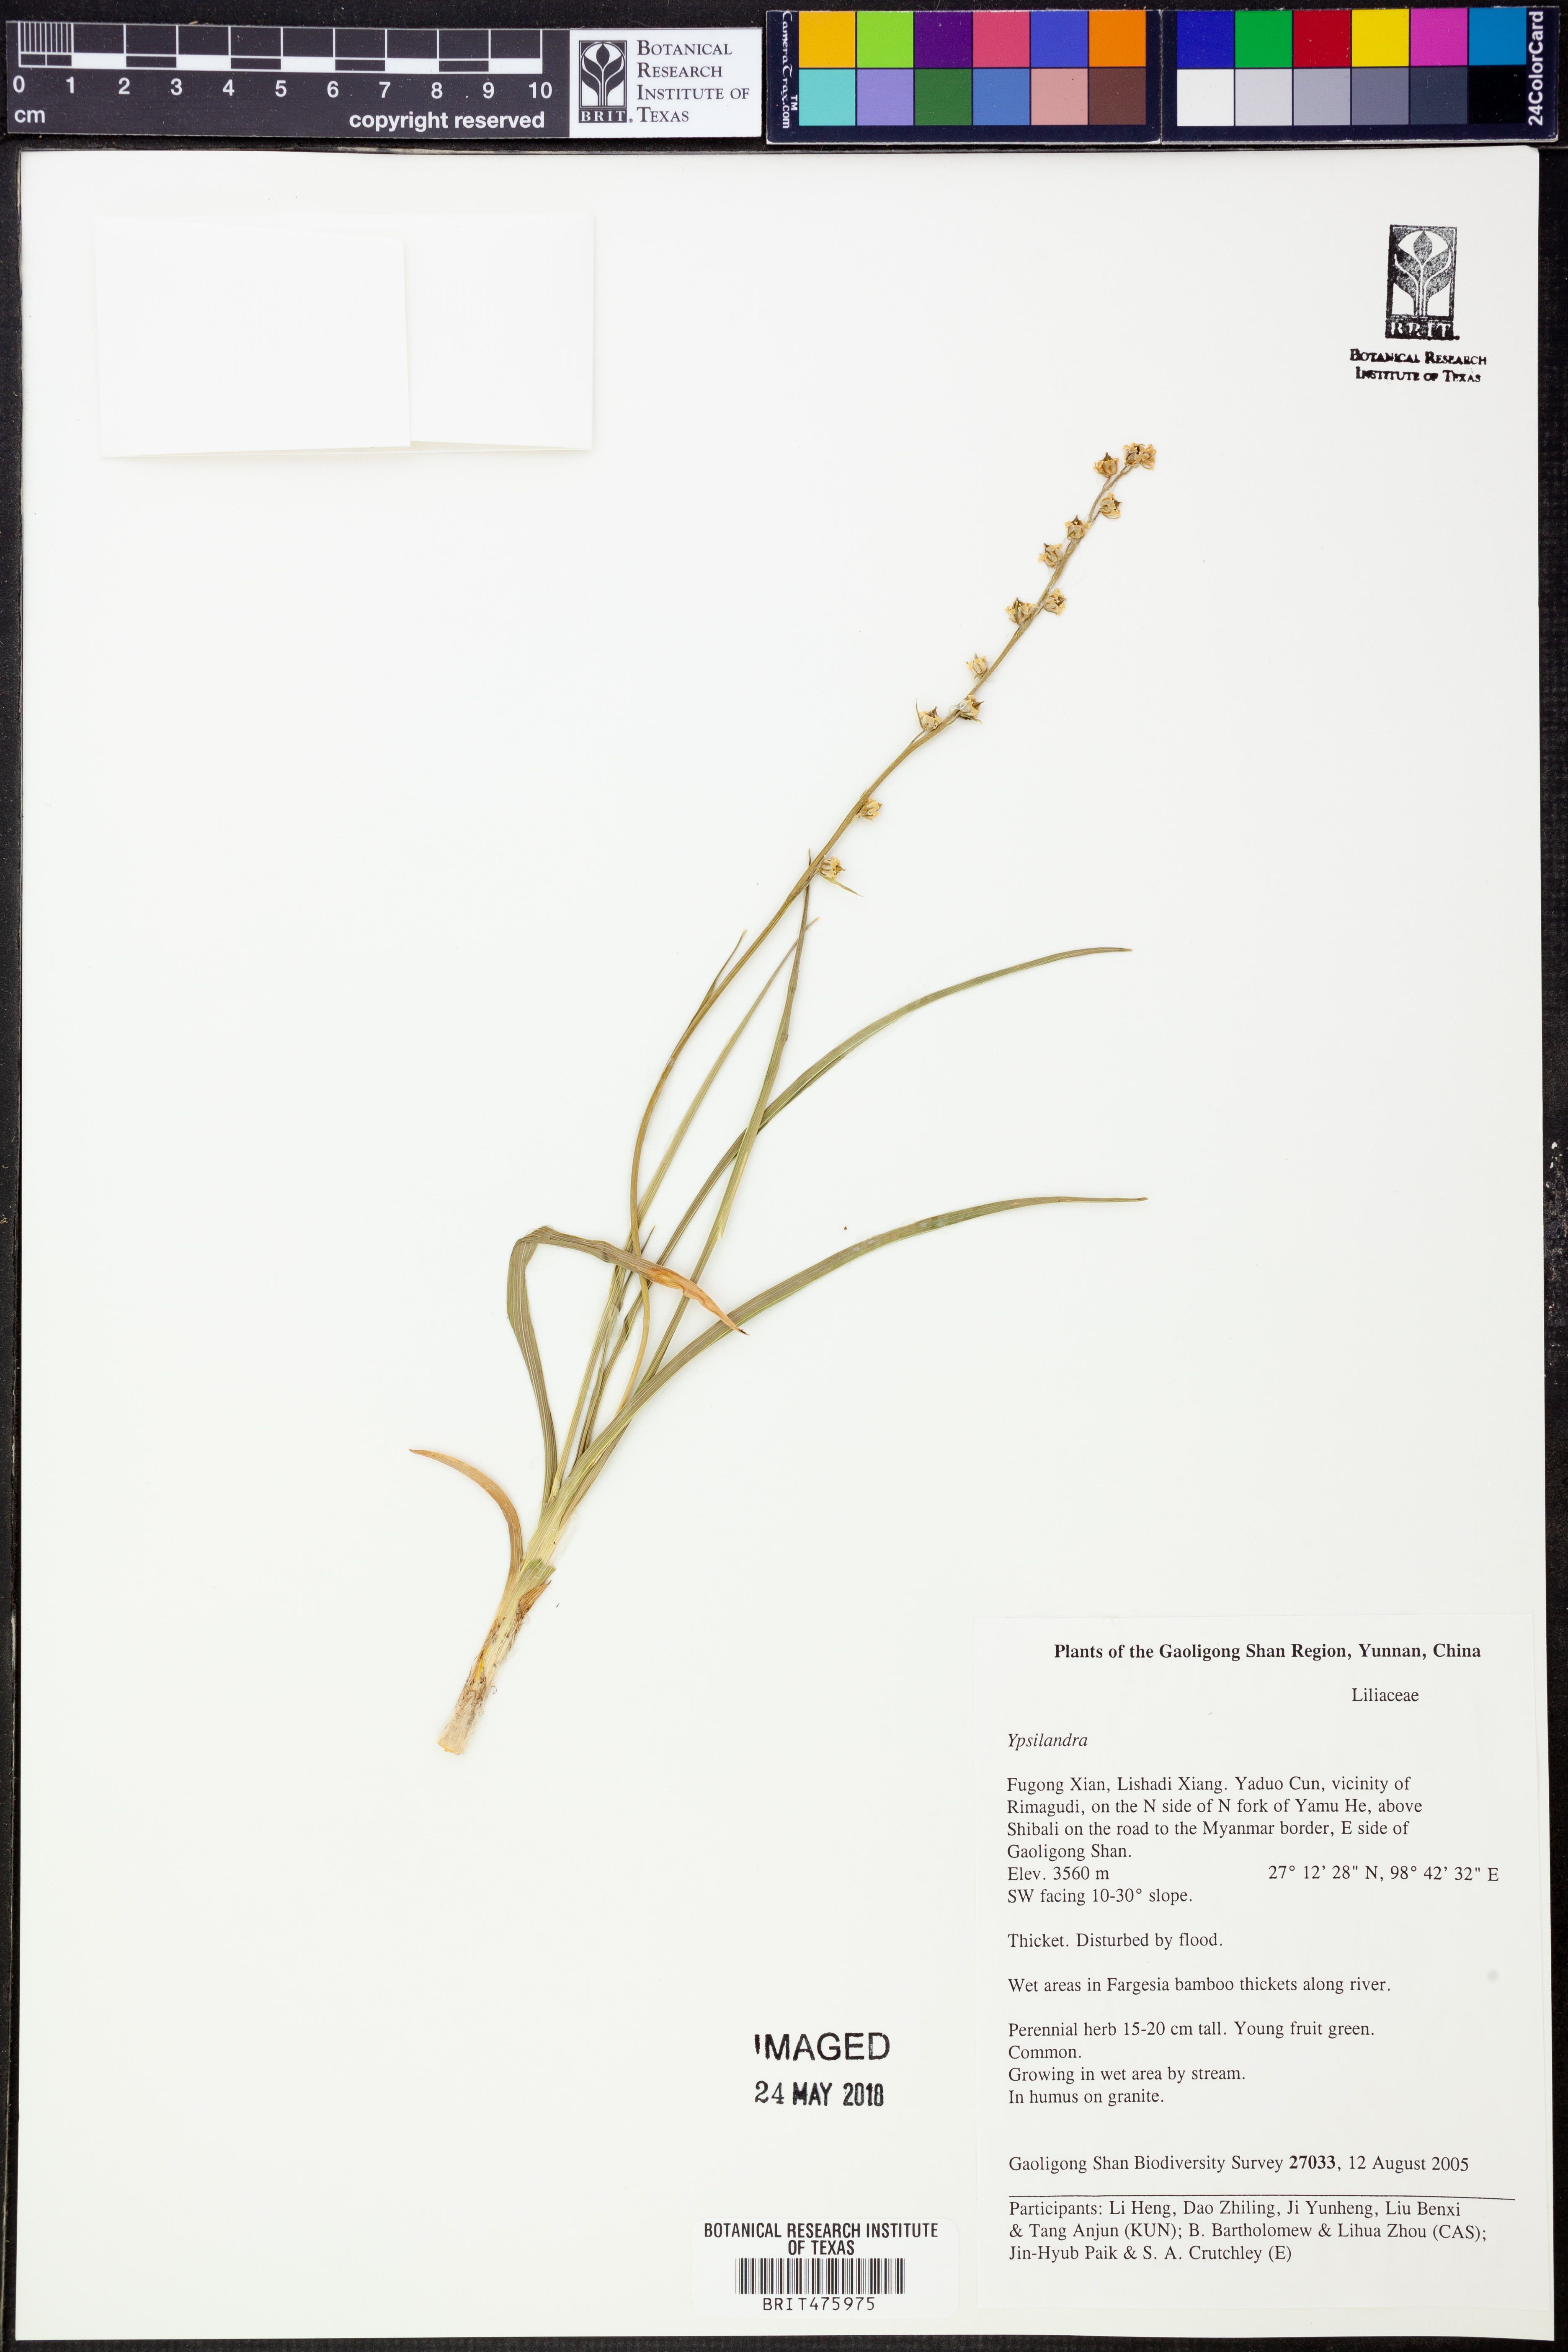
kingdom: Plantae
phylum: Tracheophyta
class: Magnoliopsida
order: Saxifragales
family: Saxifragaceae
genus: Astilbe
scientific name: Astilbe rivularis
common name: Tall false-buck's-beard
